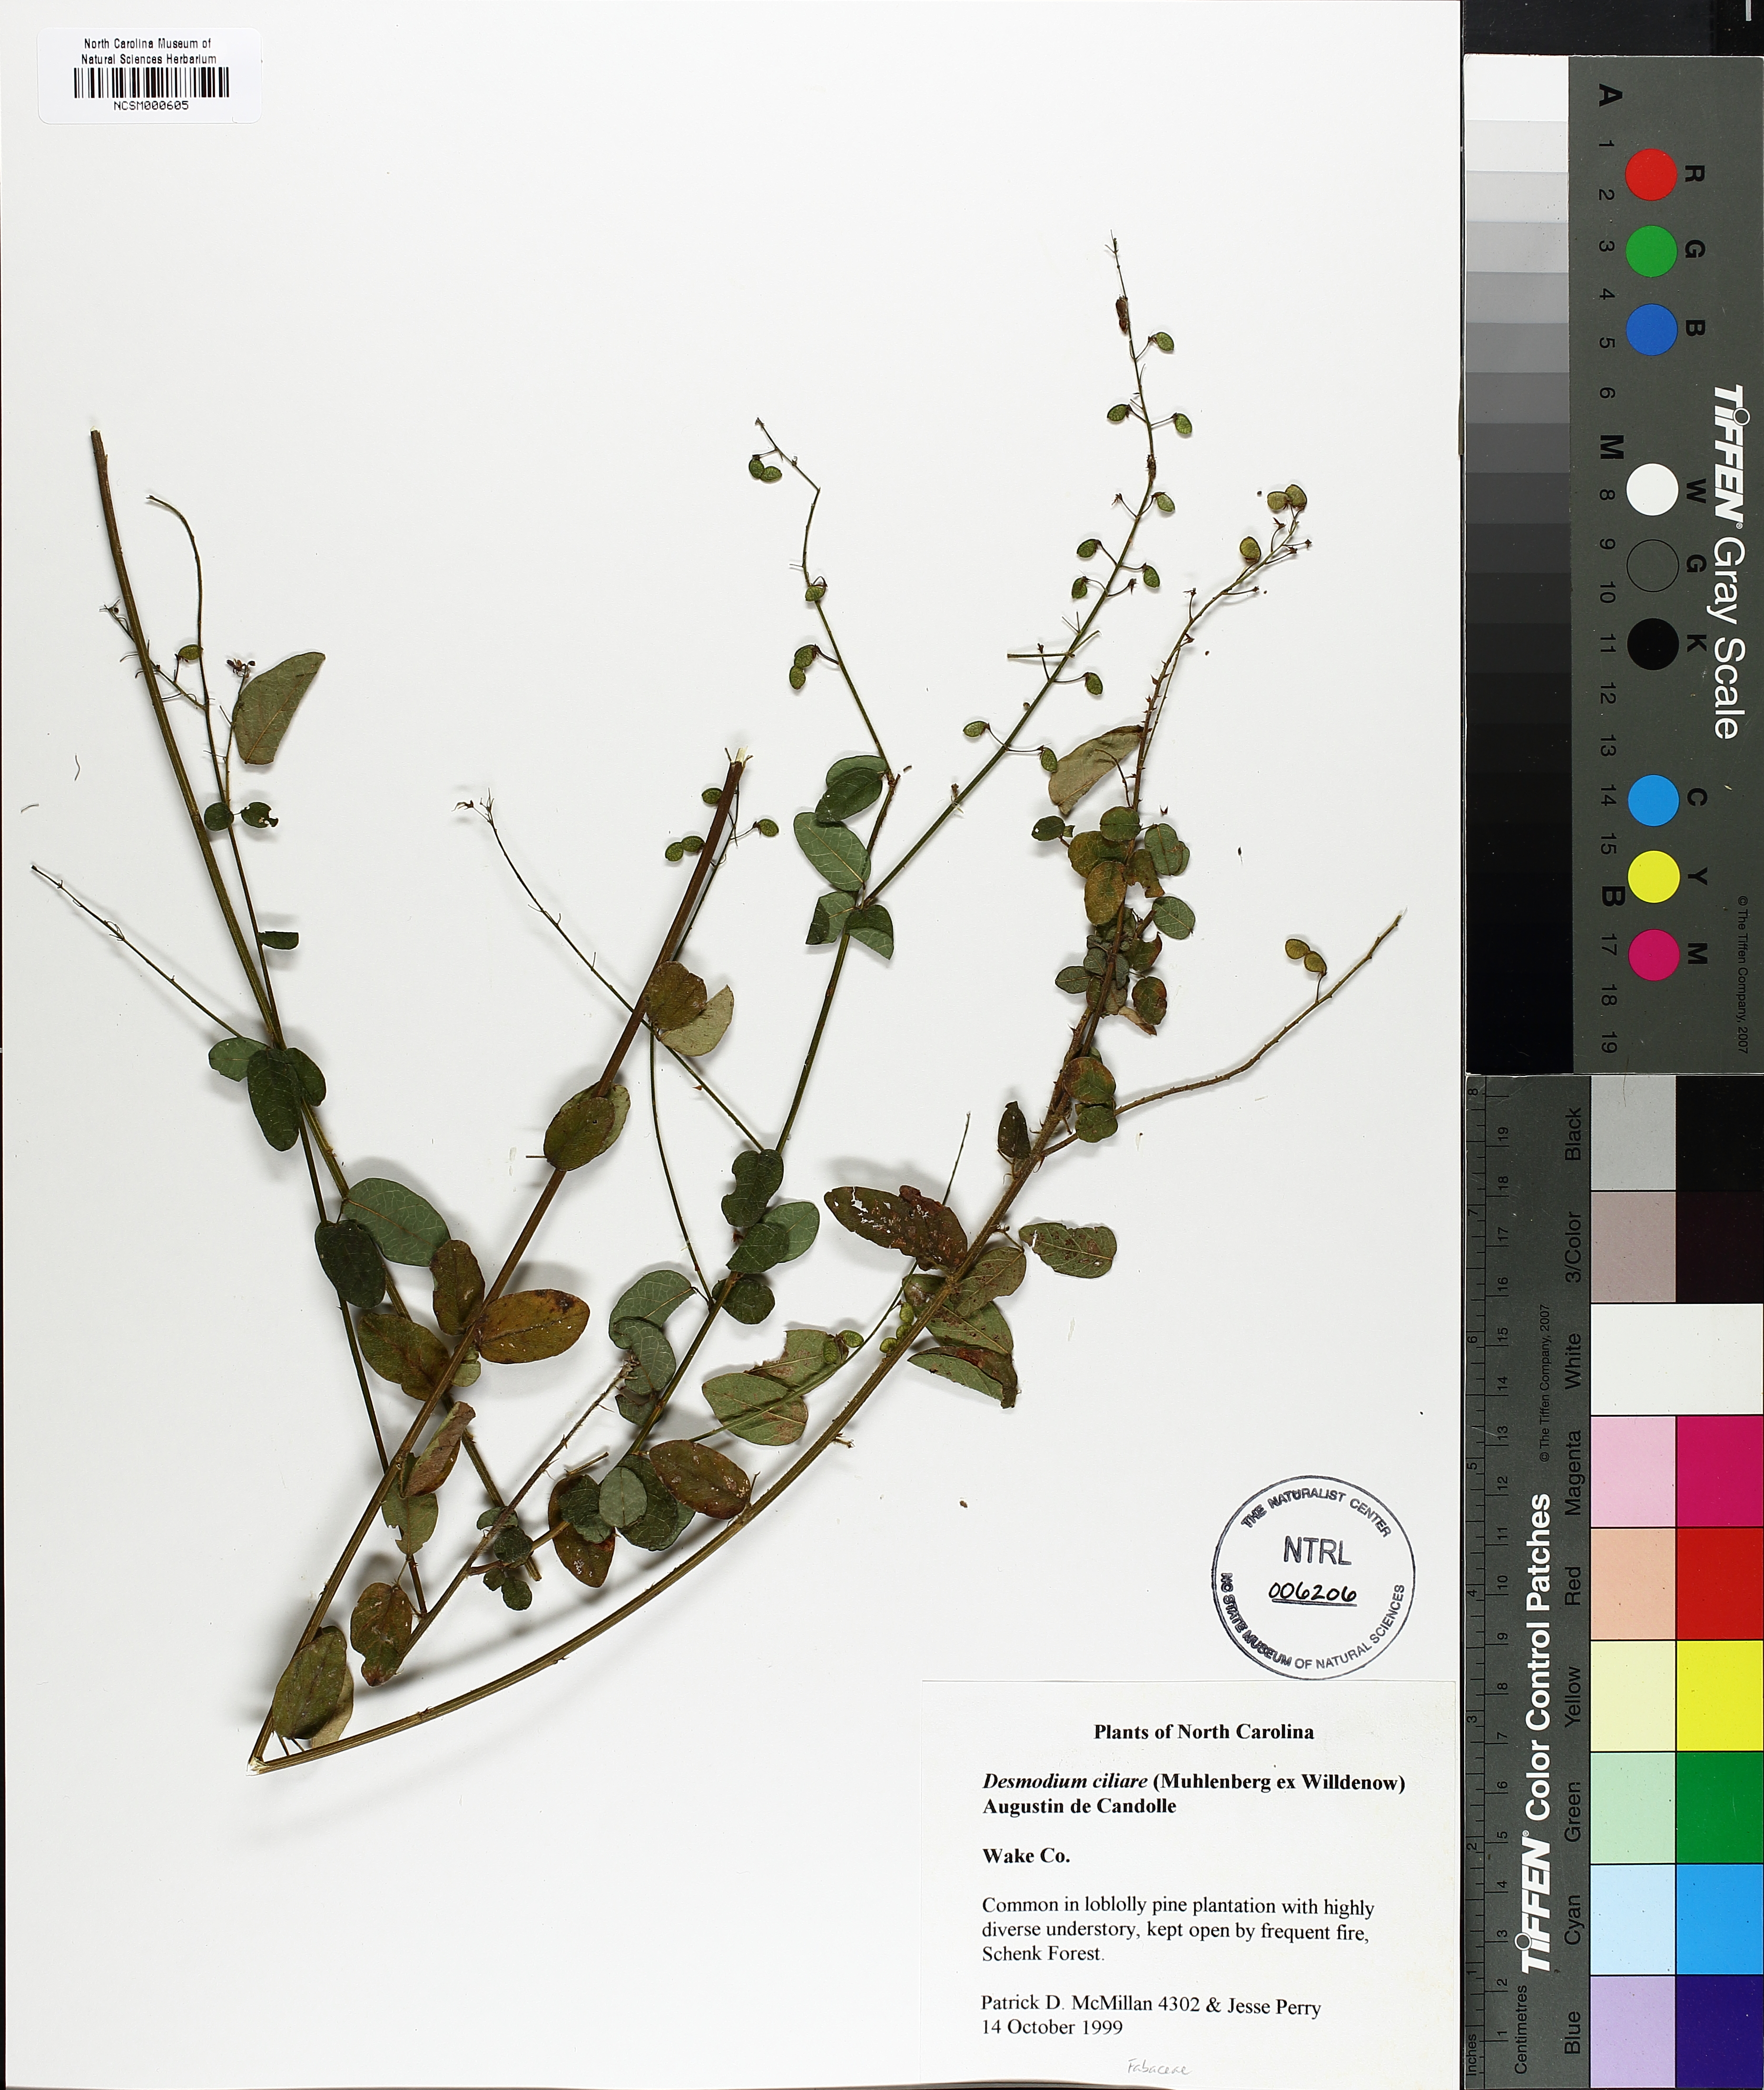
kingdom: Plantae
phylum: Tracheophyta
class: Magnoliopsida
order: Fabales
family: Fabaceae
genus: Desmodium
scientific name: Desmodium ciliare
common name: Hairy small-leaf ticktrefoil
